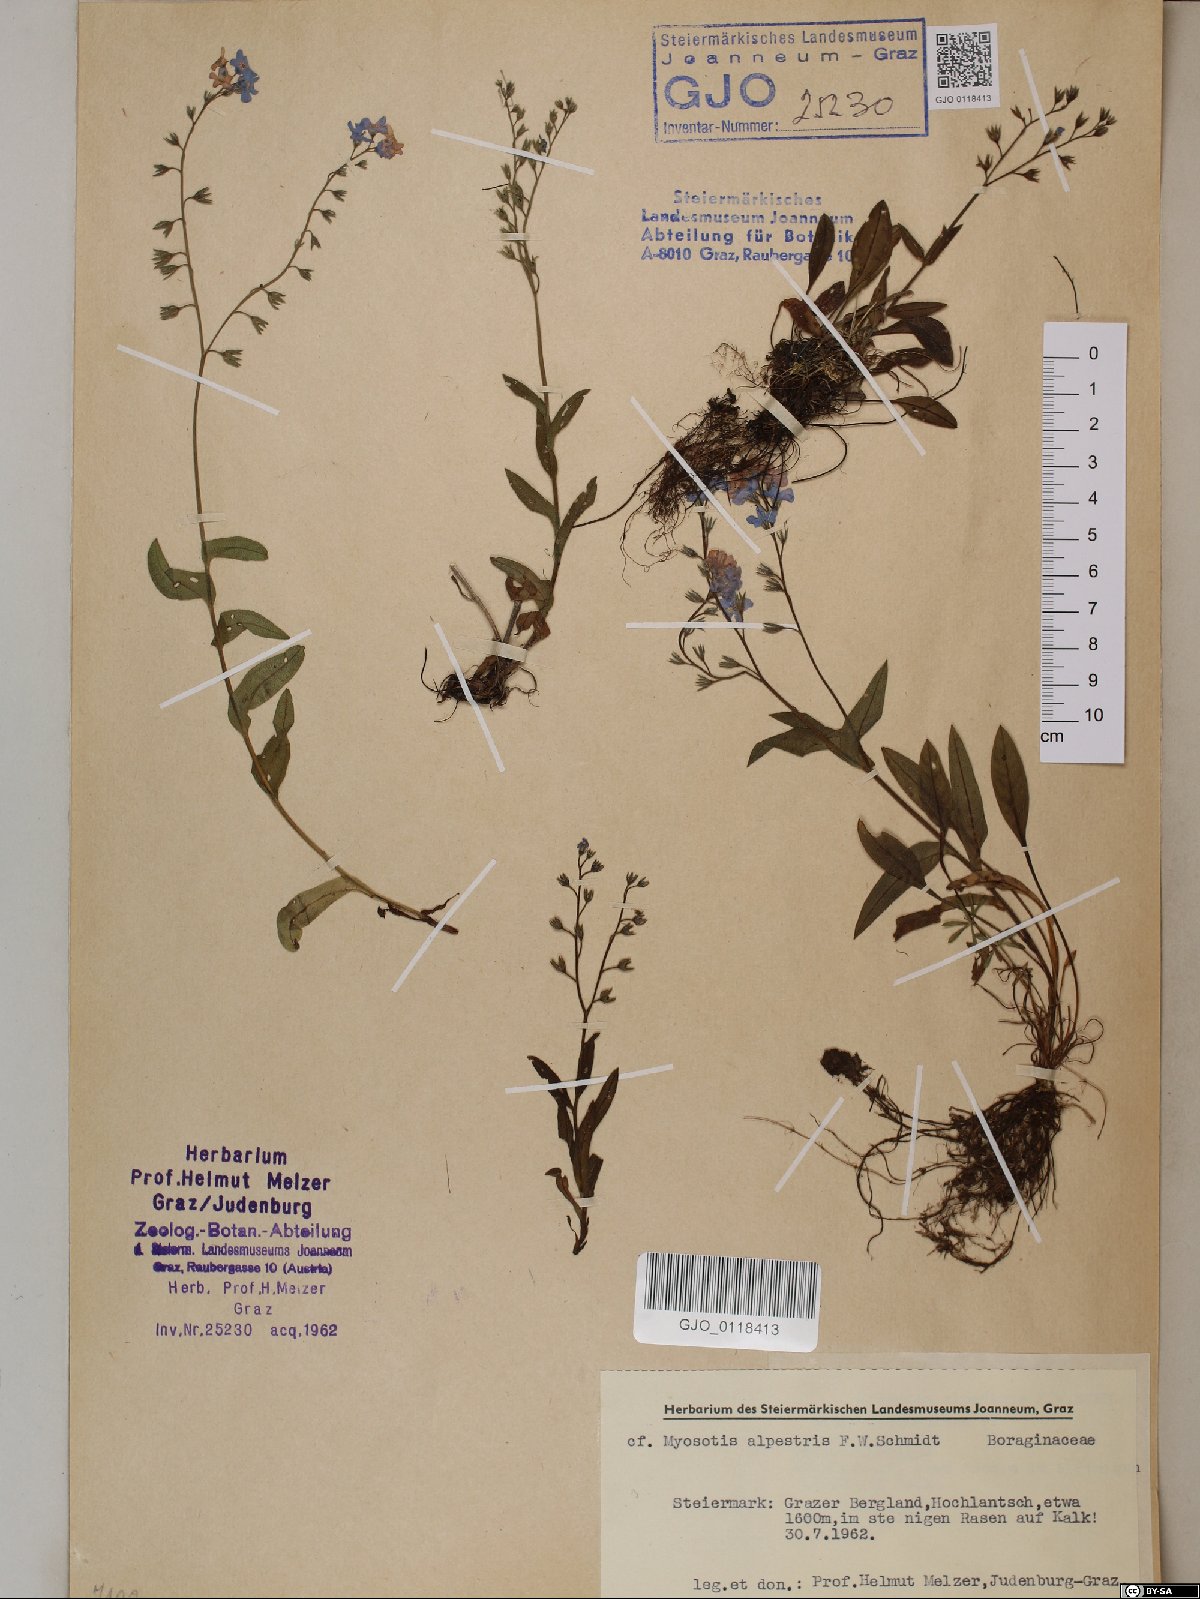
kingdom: Plantae
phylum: Tracheophyta
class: Magnoliopsida
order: Boraginales
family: Boraginaceae
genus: Myosotis
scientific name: Myosotis alpestris
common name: Alpine forget-me-not
